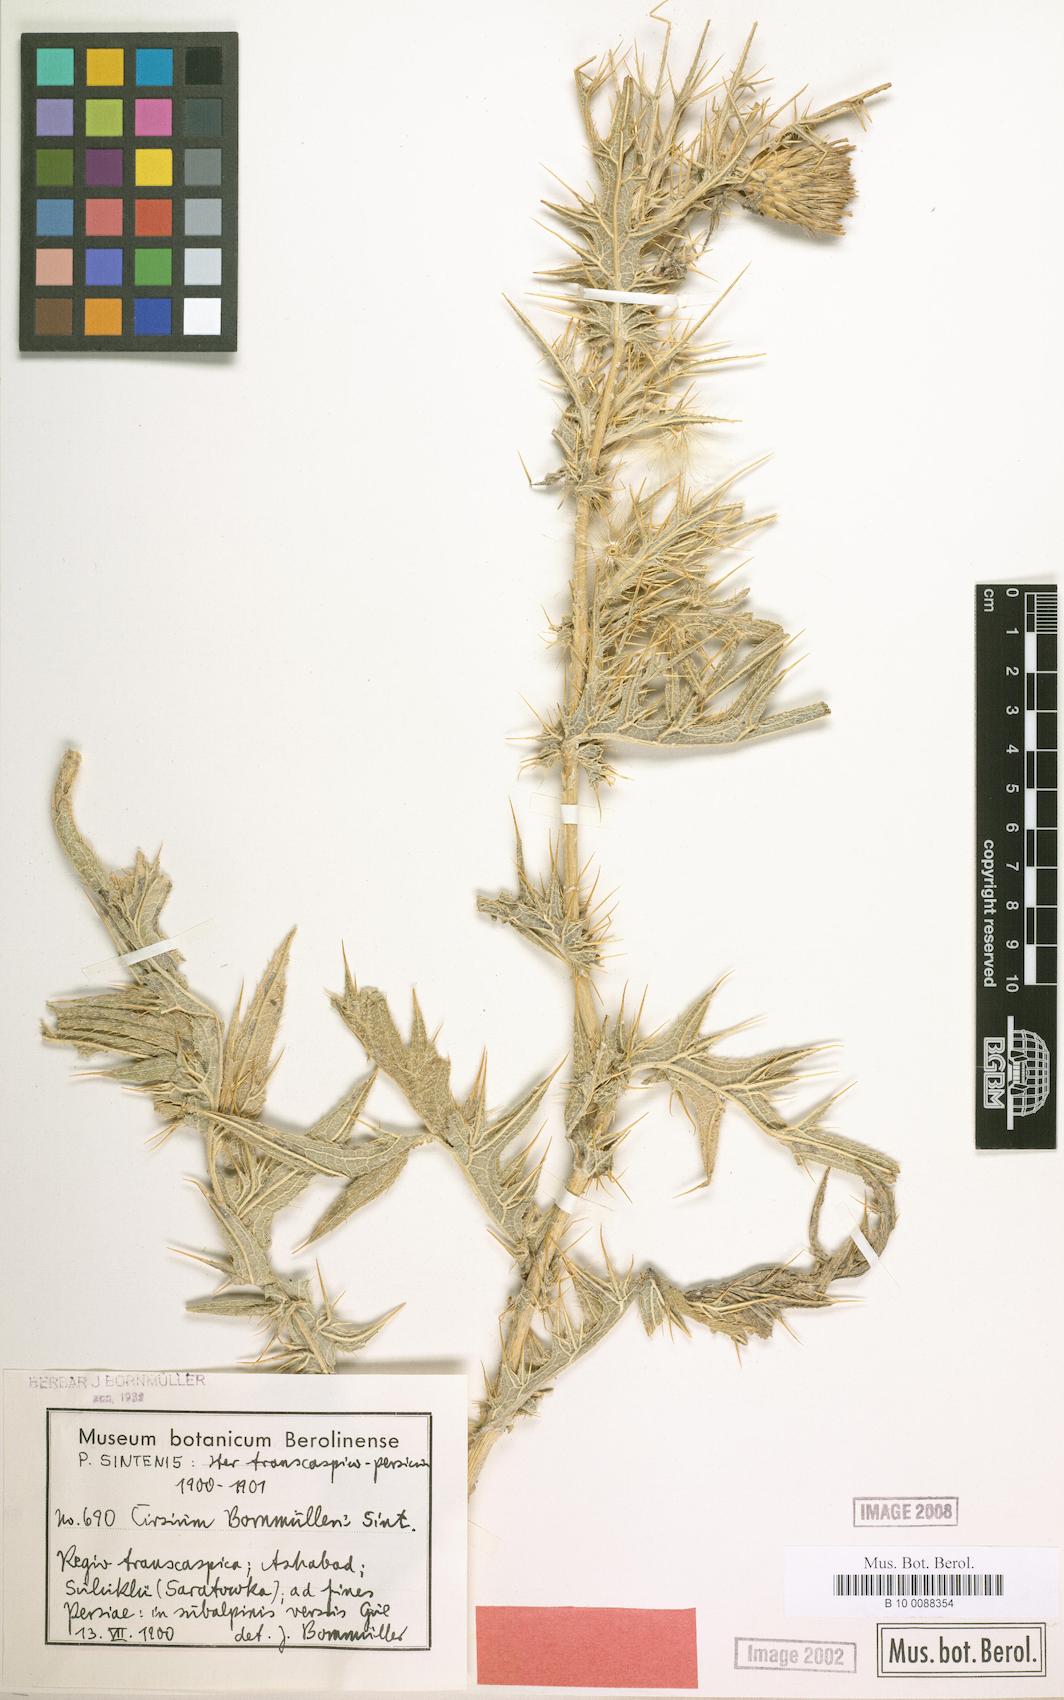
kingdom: Plantae
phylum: Tracheophyta
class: Magnoliopsida
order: Asterales
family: Asteraceae
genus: Lophiolepis
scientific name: Lophiolepis bornmuelleri
